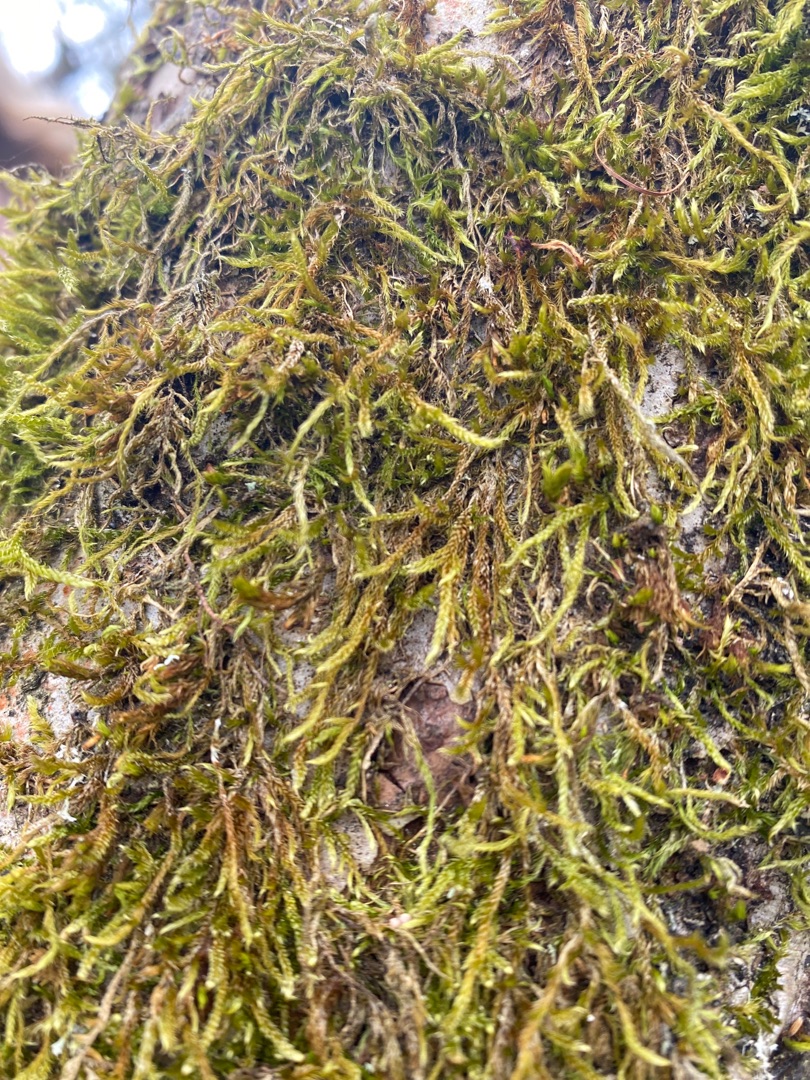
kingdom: Plantae
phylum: Bryophyta
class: Bryopsida
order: Hypnales
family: Hypnaceae
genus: Hypnum
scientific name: Hypnum cupressiforme
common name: Almindelig cypresmos
